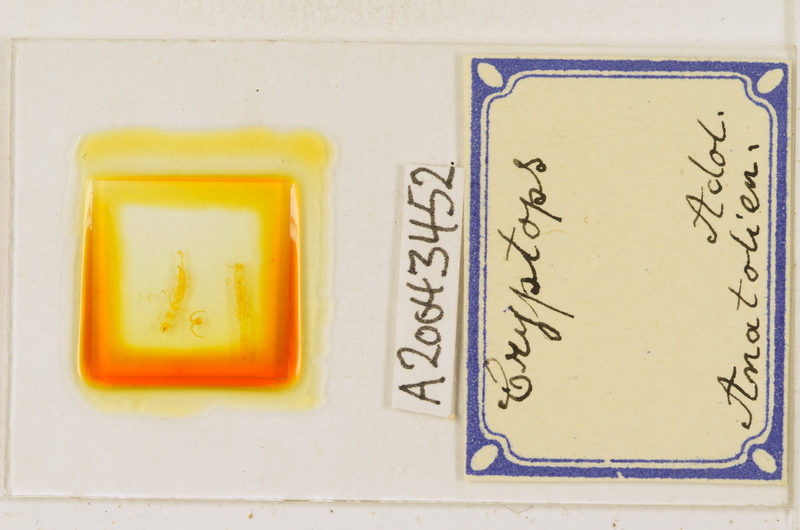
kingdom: Animalia
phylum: Arthropoda
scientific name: Arthropoda
